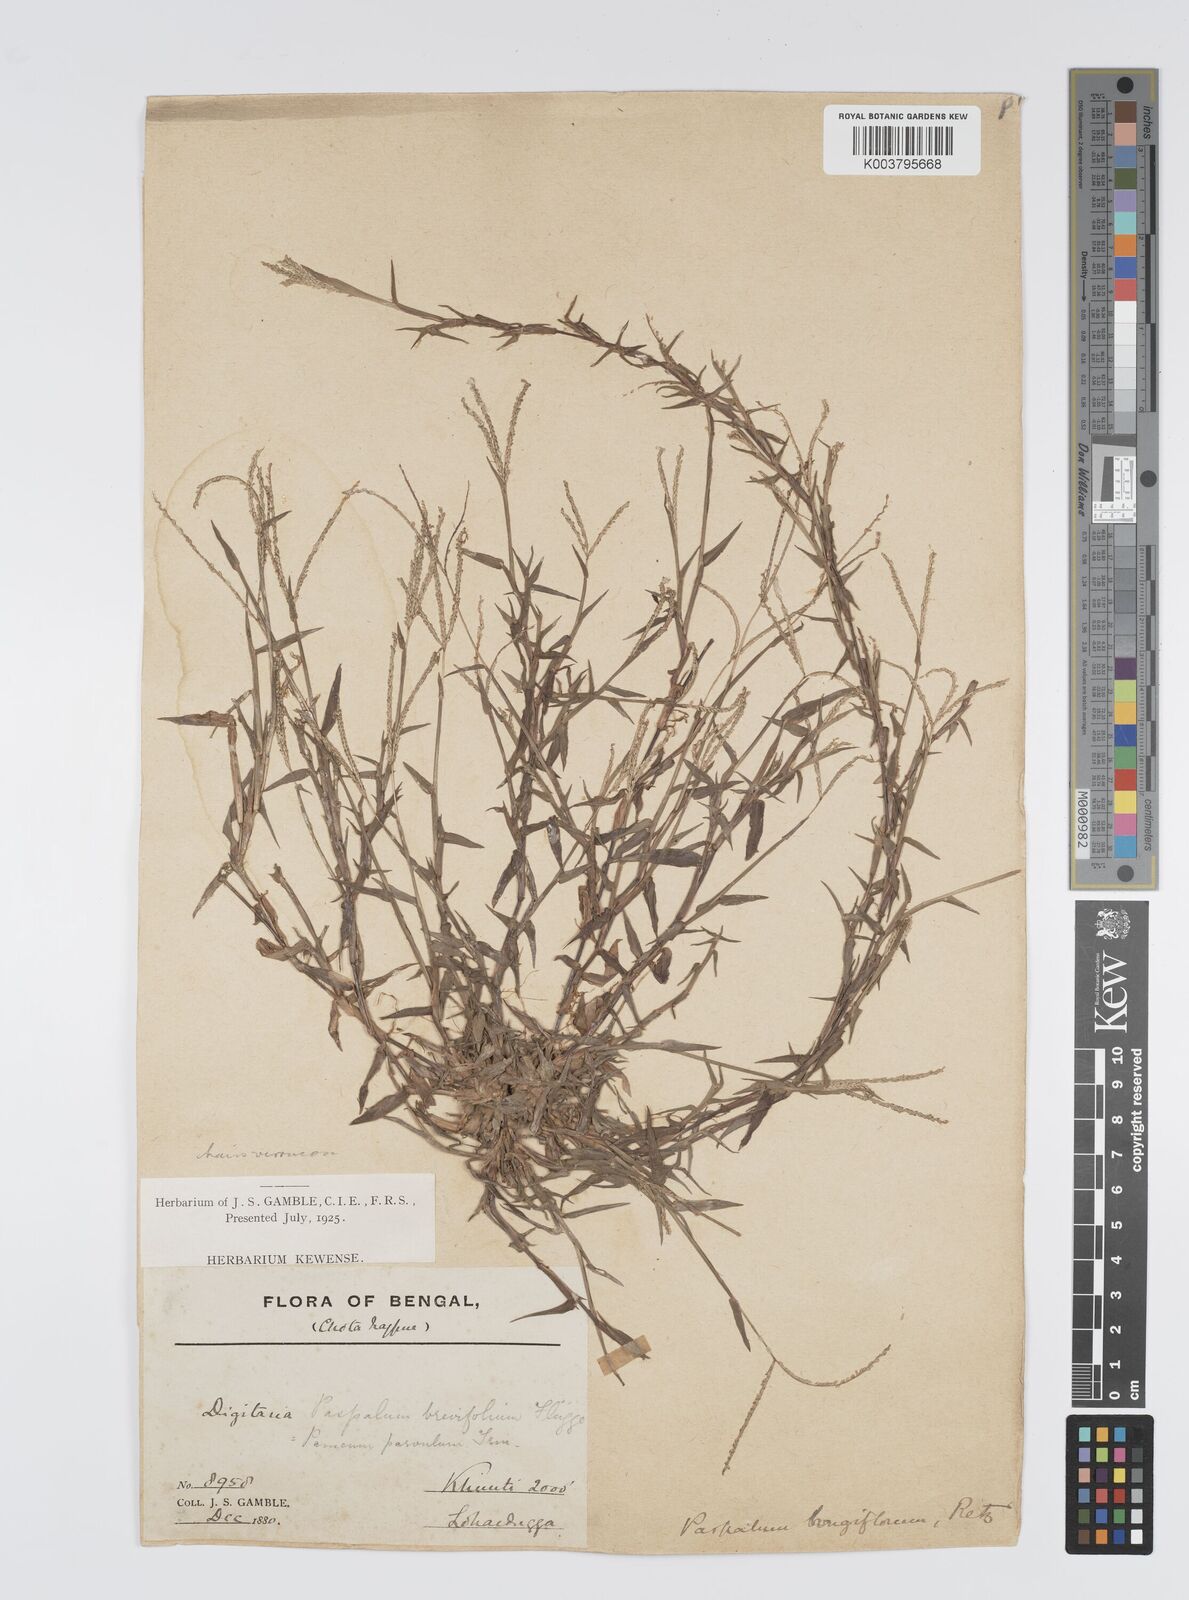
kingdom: Plantae
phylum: Tracheophyta
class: Liliopsida
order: Poales
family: Poaceae
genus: Digitaria
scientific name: Digitaria longiflora
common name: Wire crabgrass
